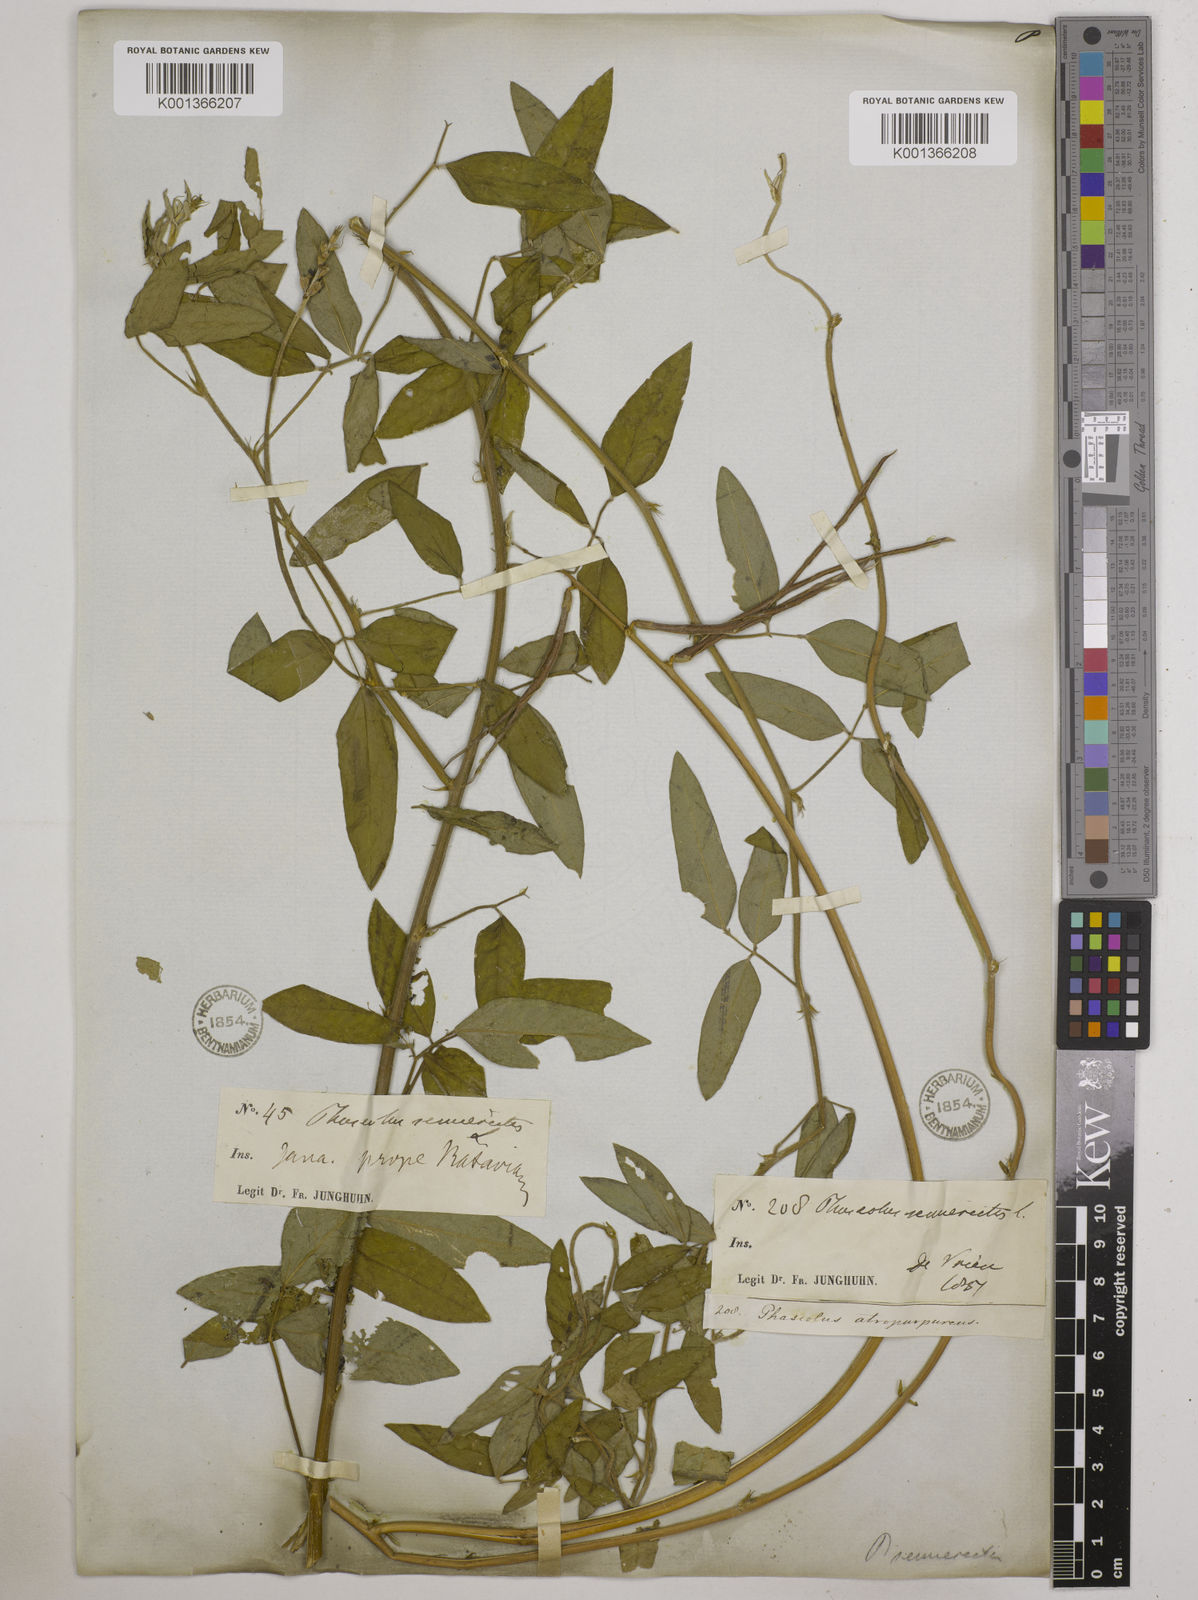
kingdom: Plantae
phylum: Tracheophyta
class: Magnoliopsida
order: Fabales
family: Fabaceae
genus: Macroptilium
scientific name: Macroptilium lathyroides
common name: Wild bushbean
